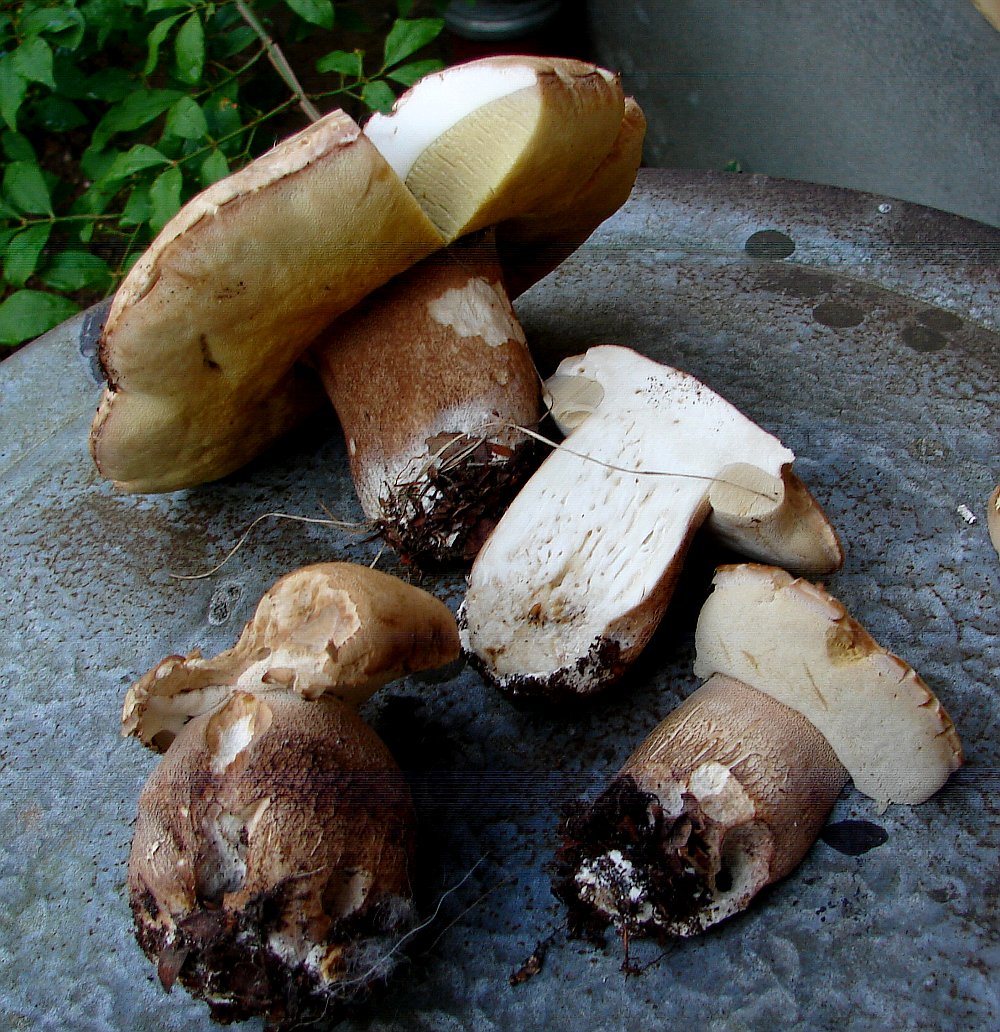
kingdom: Fungi
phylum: Basidiomycota
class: Agaricomycetes
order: Boletales
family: Boletaceae
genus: Boletus
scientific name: Boletus
